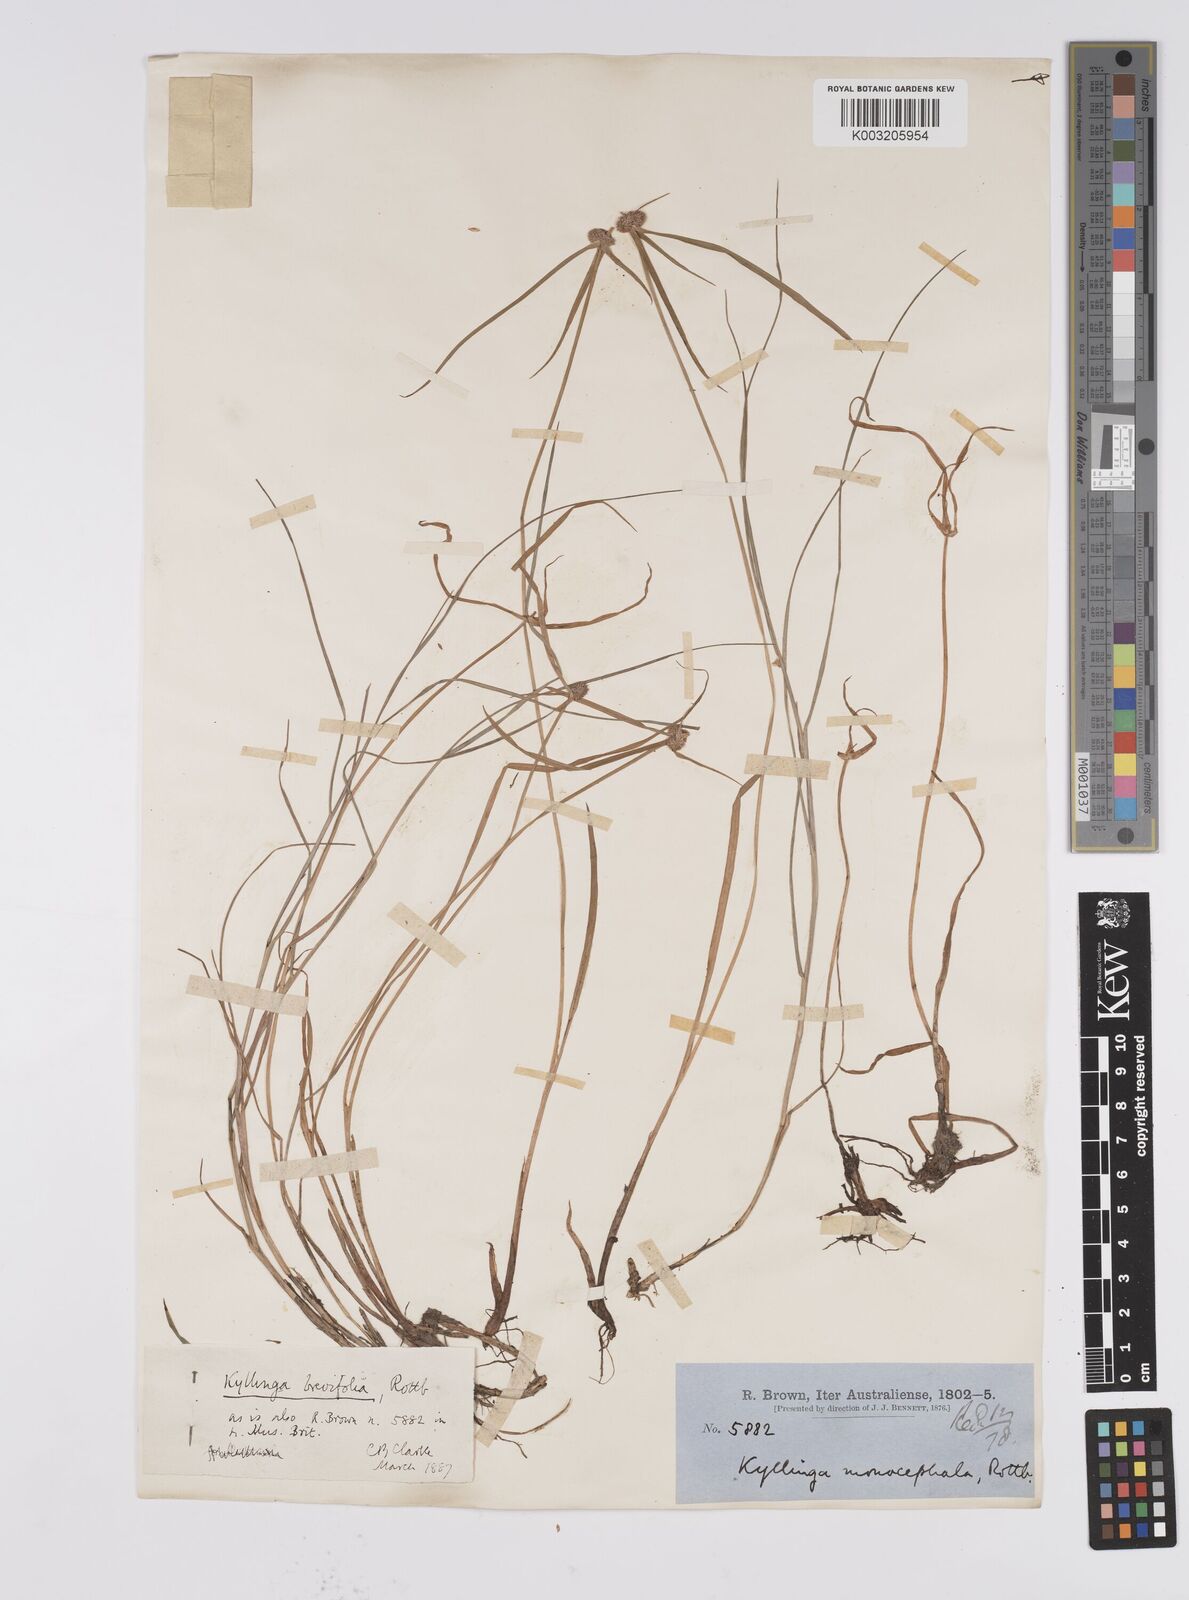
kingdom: Plantae
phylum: Tracheophyta
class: Liliopsida
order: Poales
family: Cyperaceae
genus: Cyperus
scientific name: Cyperus brevifolius
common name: Globe kyllinga
